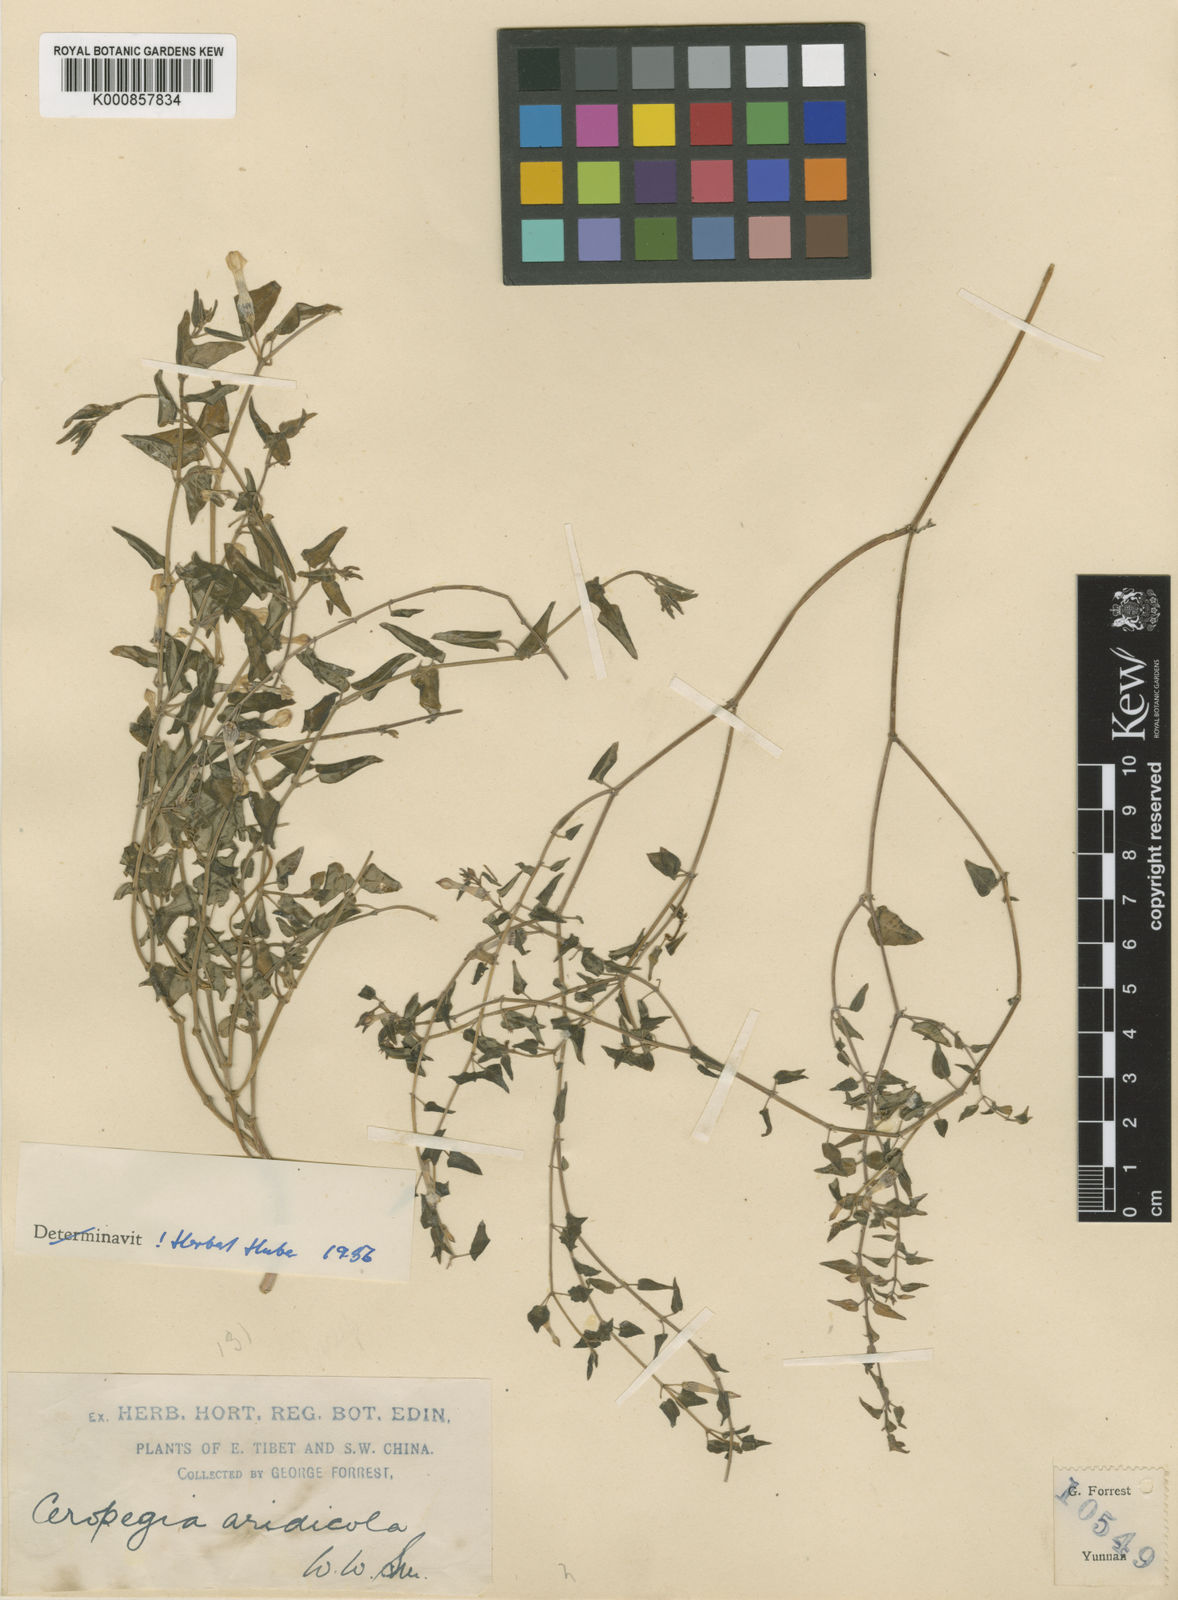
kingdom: Plantae
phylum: Tracheophyta
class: Magnoliopsida
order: Gentianales
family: Apocynaceae
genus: Ceropegia
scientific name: Ceropegia aridicola
